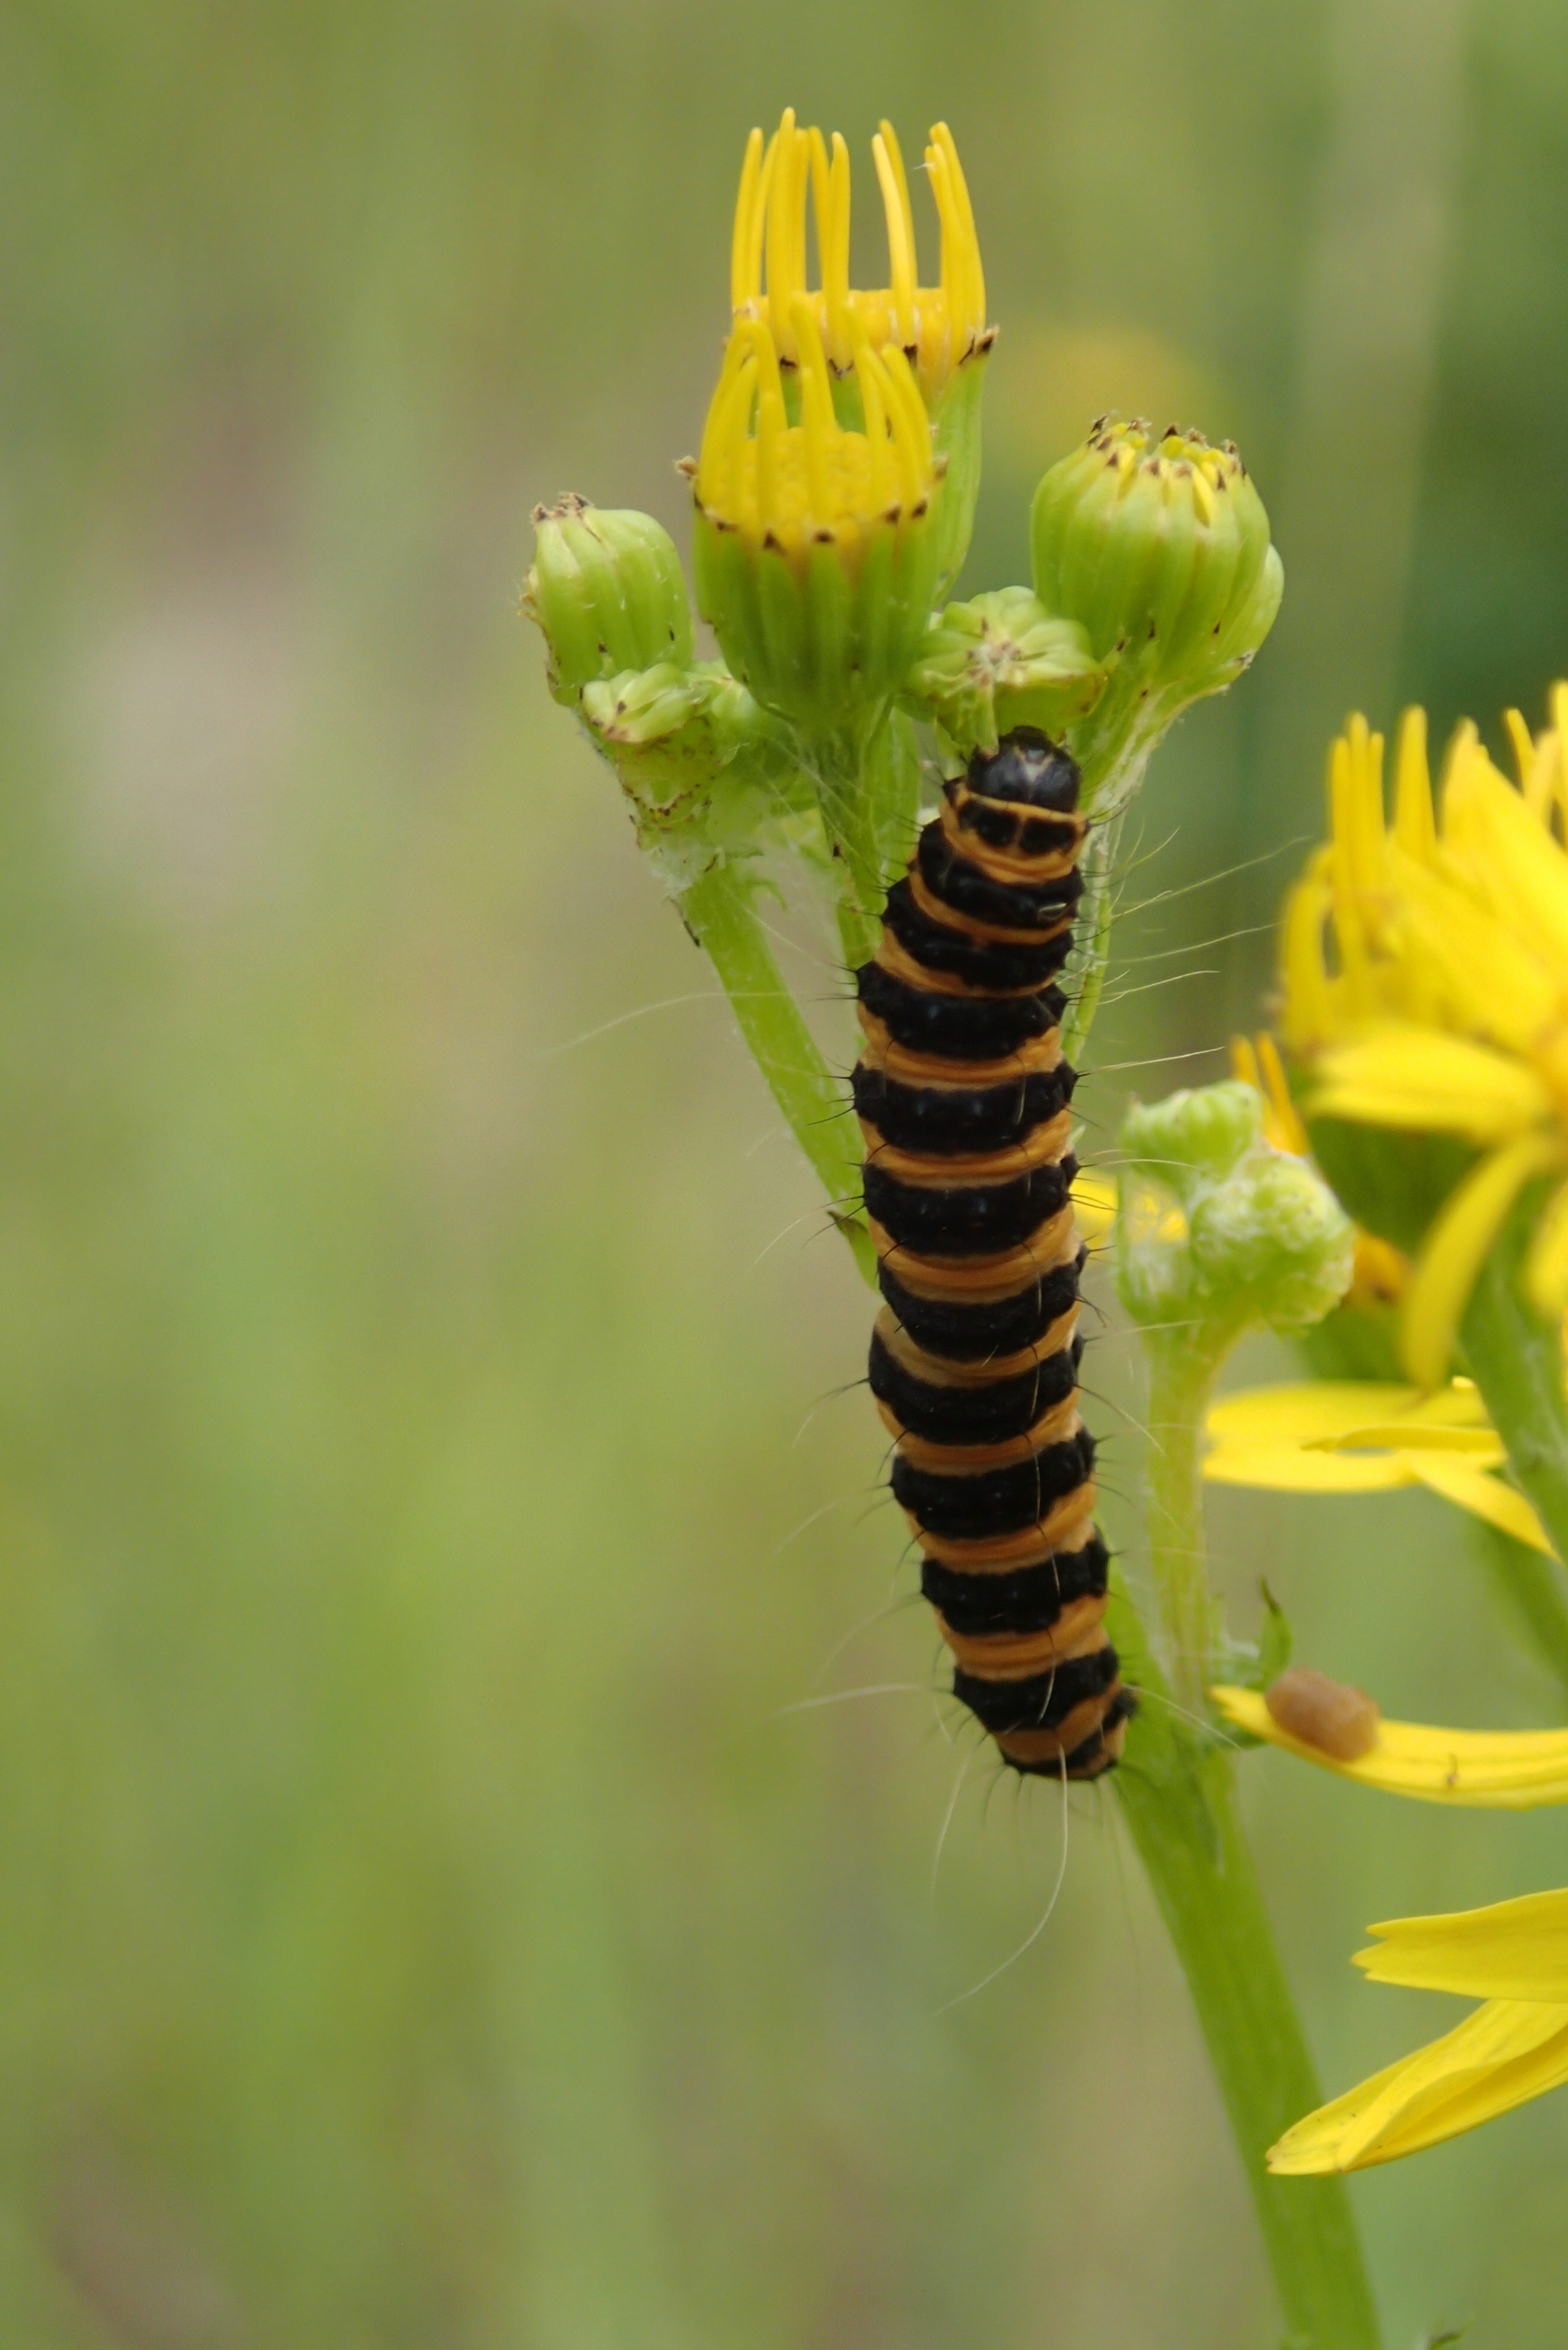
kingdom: Animalia
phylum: Arthropoda
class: Insecta
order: Lepidoptera
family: Erebidae
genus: Tyria
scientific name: Tyria jacobaeae
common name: Blodplet
